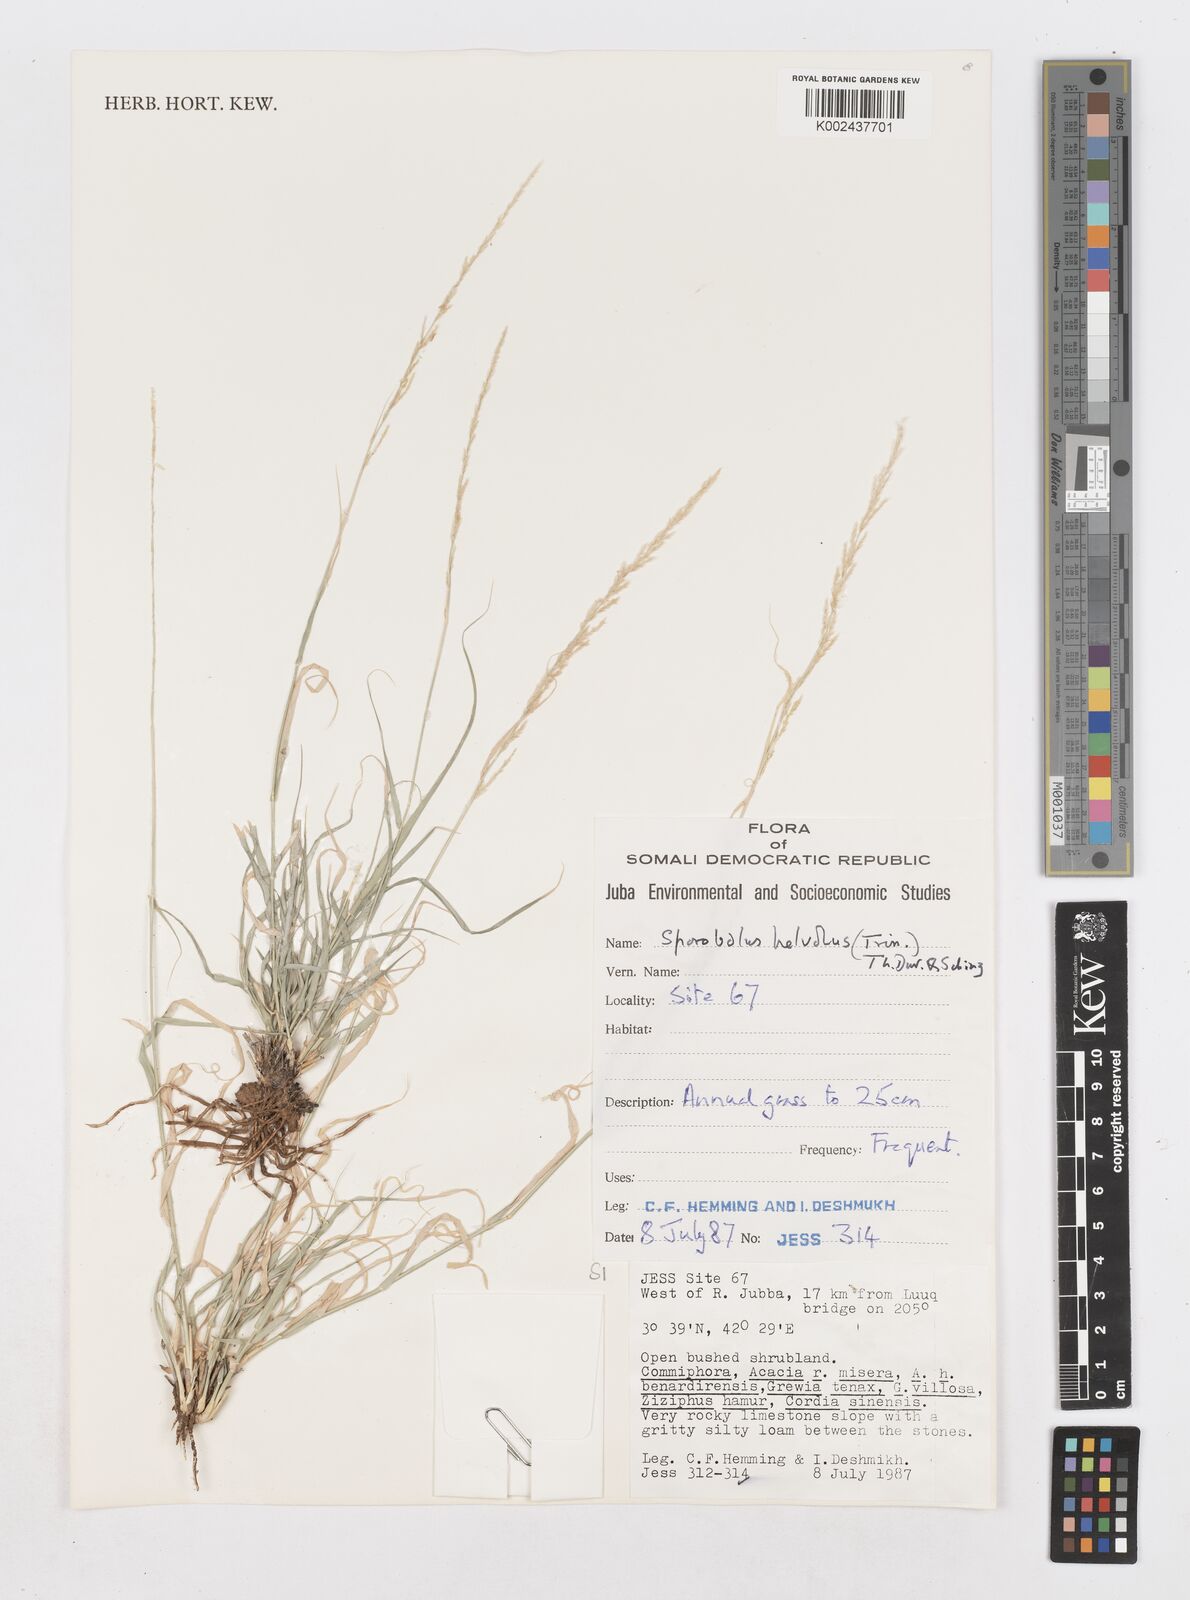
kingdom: Plantae
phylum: Tracheophyta
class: Liliopsida
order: Poales
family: Poaceae
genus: Sporobolus
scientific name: Sporobolus helvolus
